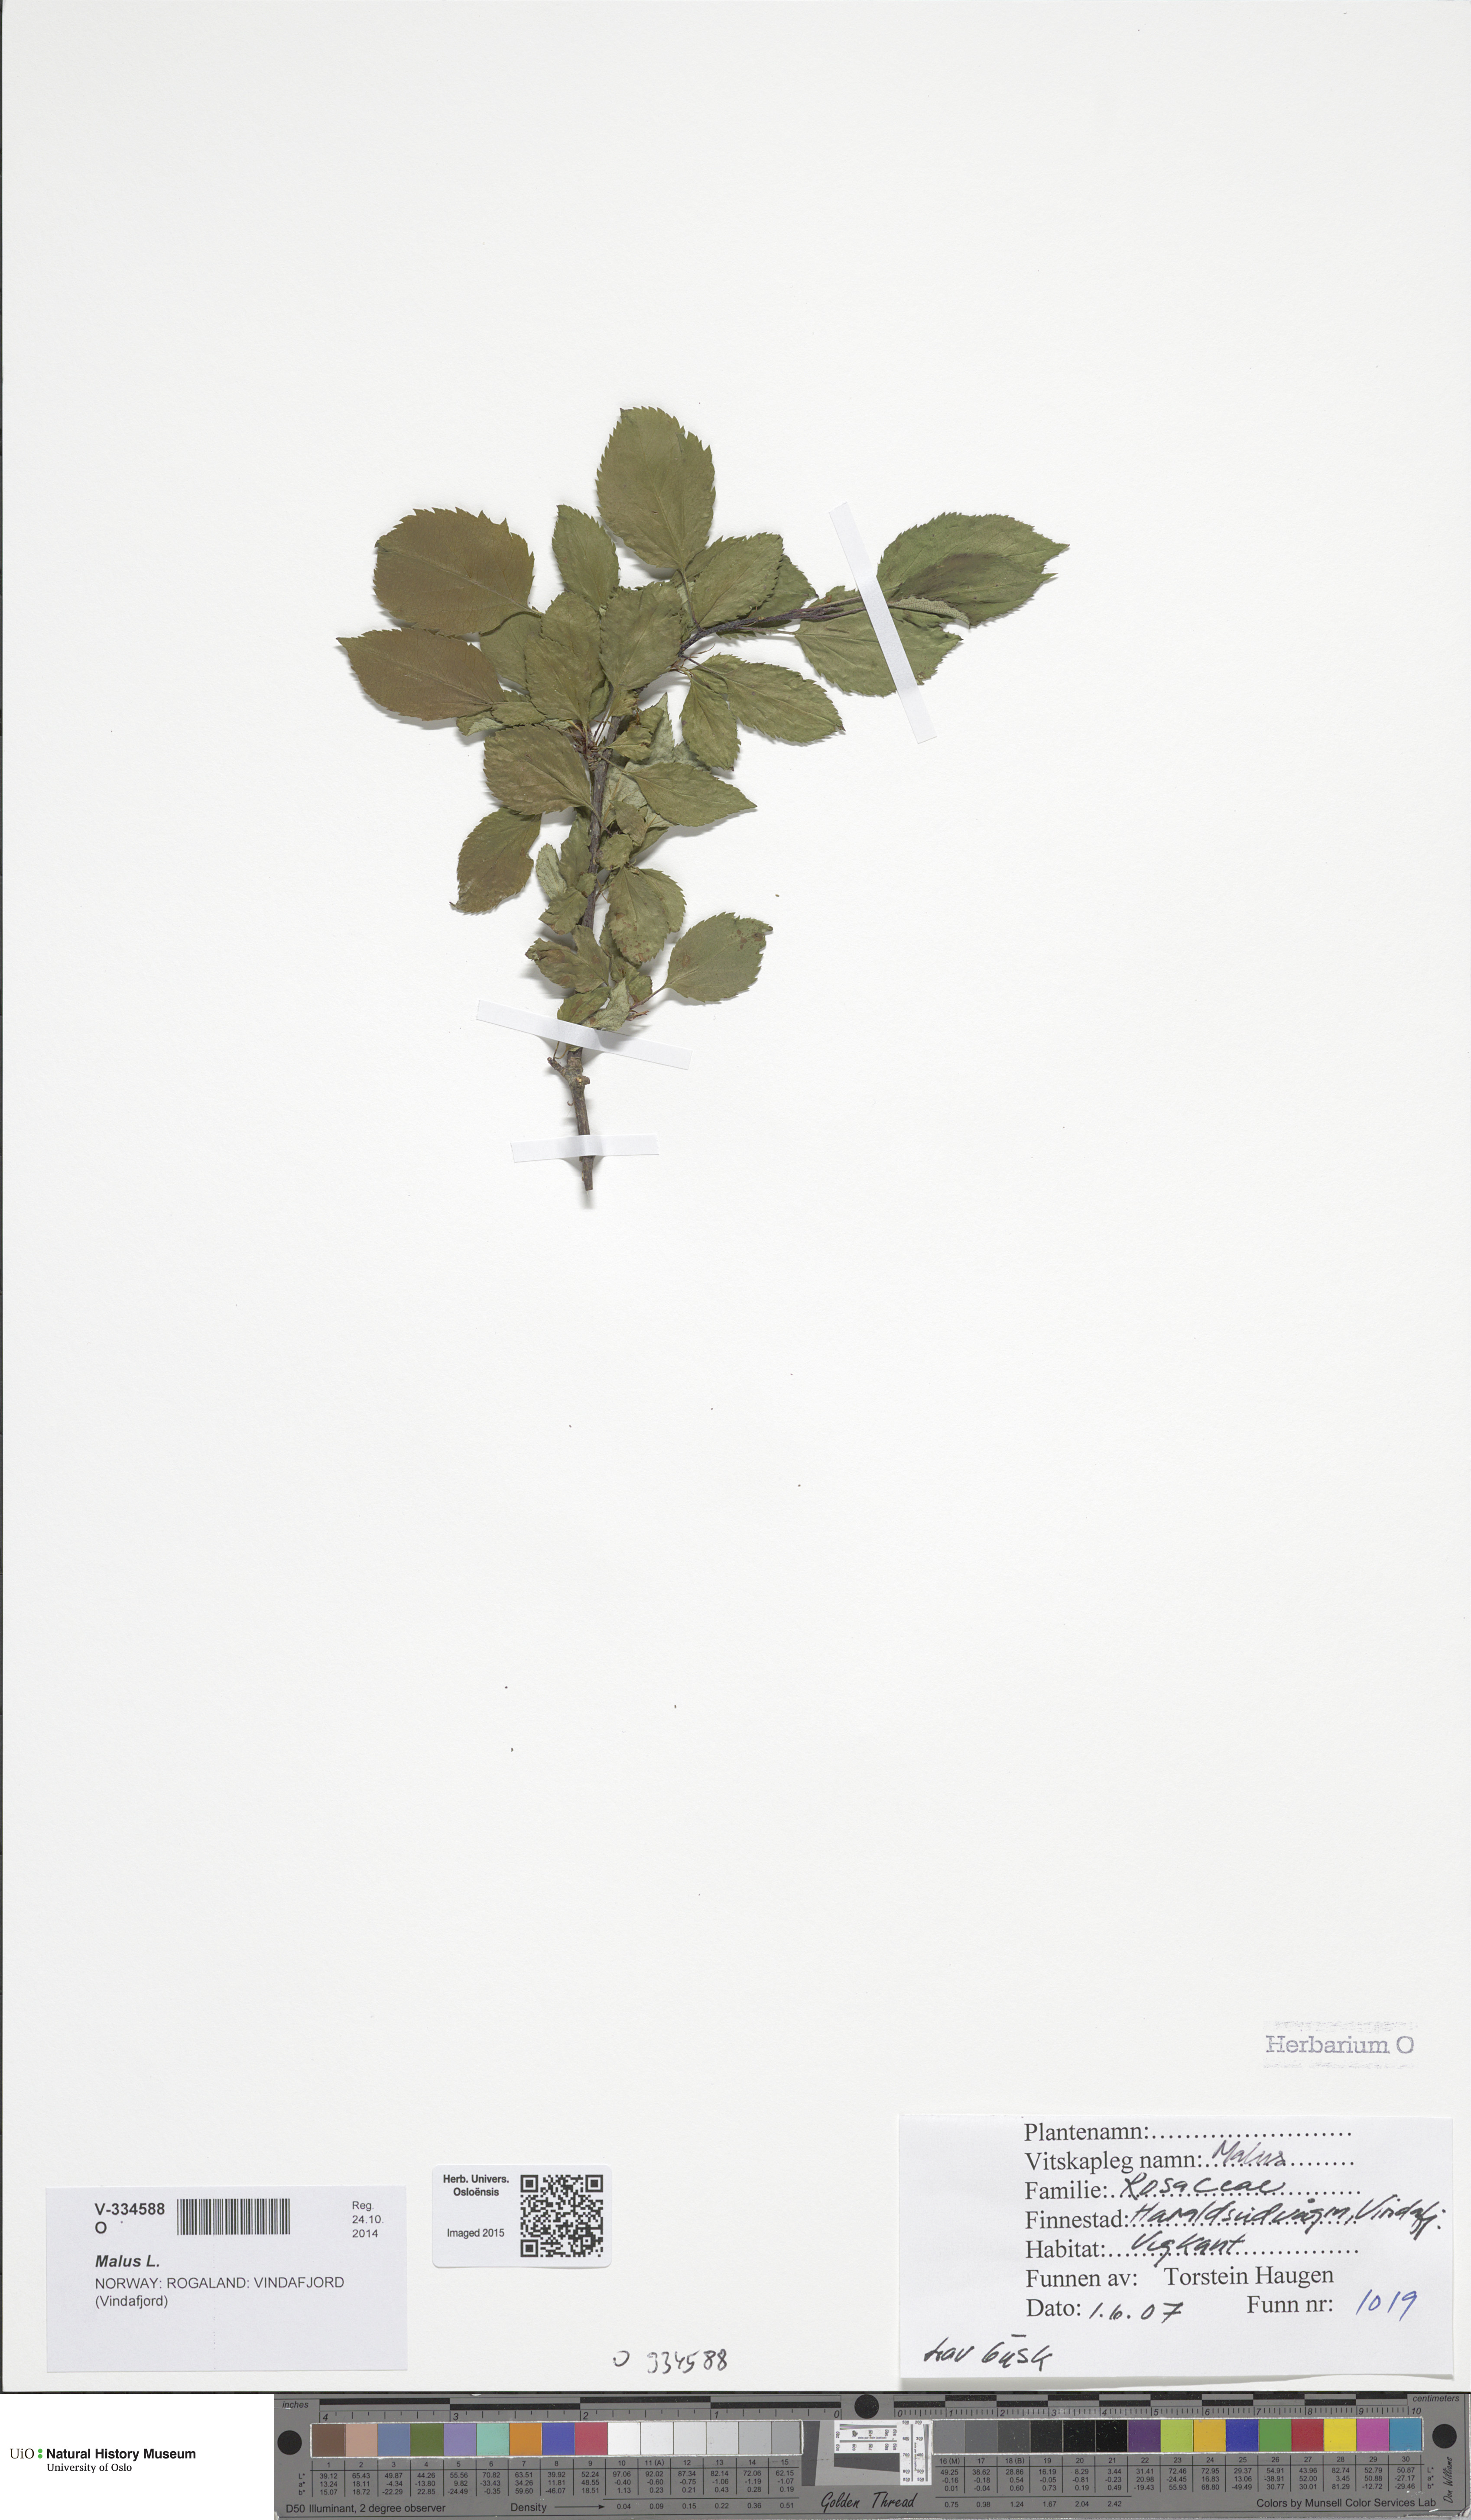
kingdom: Plantae
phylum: Tracheophyta
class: Magnoliopsida
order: Rosales
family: Rosaceae
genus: Prunus
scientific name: Prunus domestica
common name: Wild plum
